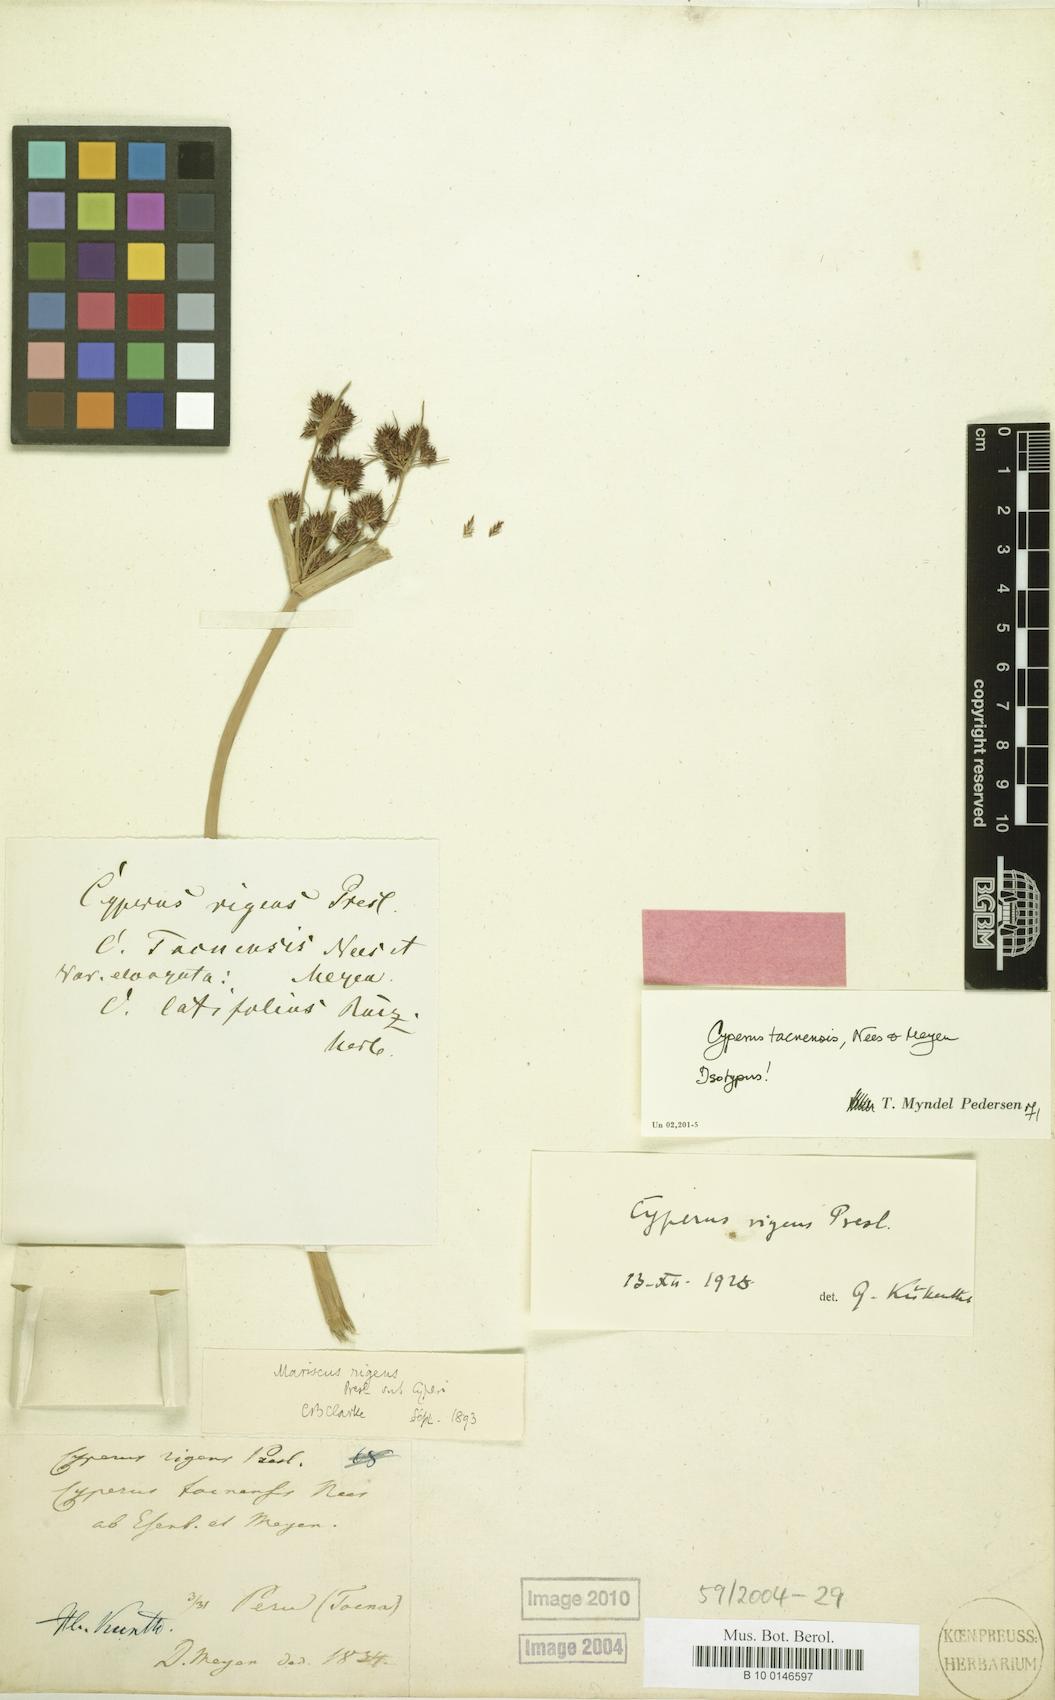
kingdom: Plantae
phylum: Tracheophyta
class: Liliopsida
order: Poales
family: Cyperaceae
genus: Cyperus
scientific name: Cyperus tacnensis
